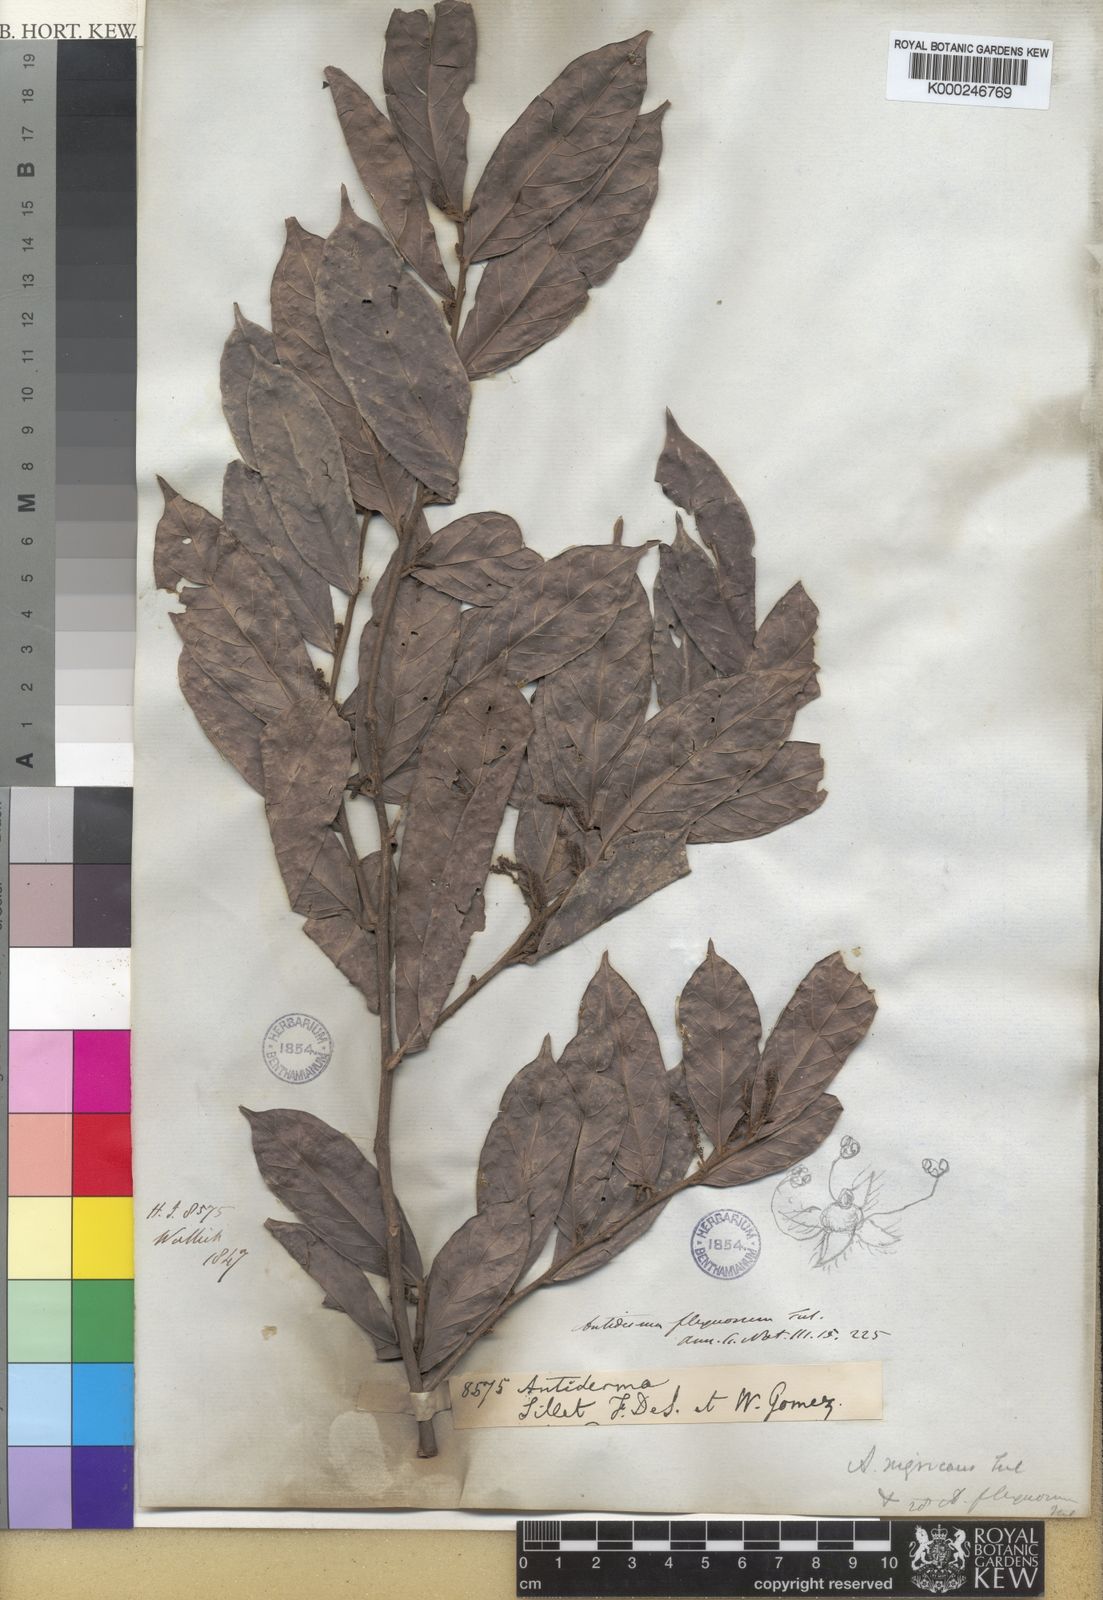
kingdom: Plantae
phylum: Tracheophyta
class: Magnoliopsida
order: Malpighiales
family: Phyllanthaceae
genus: Antidesma
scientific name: Antidesma nigricans
